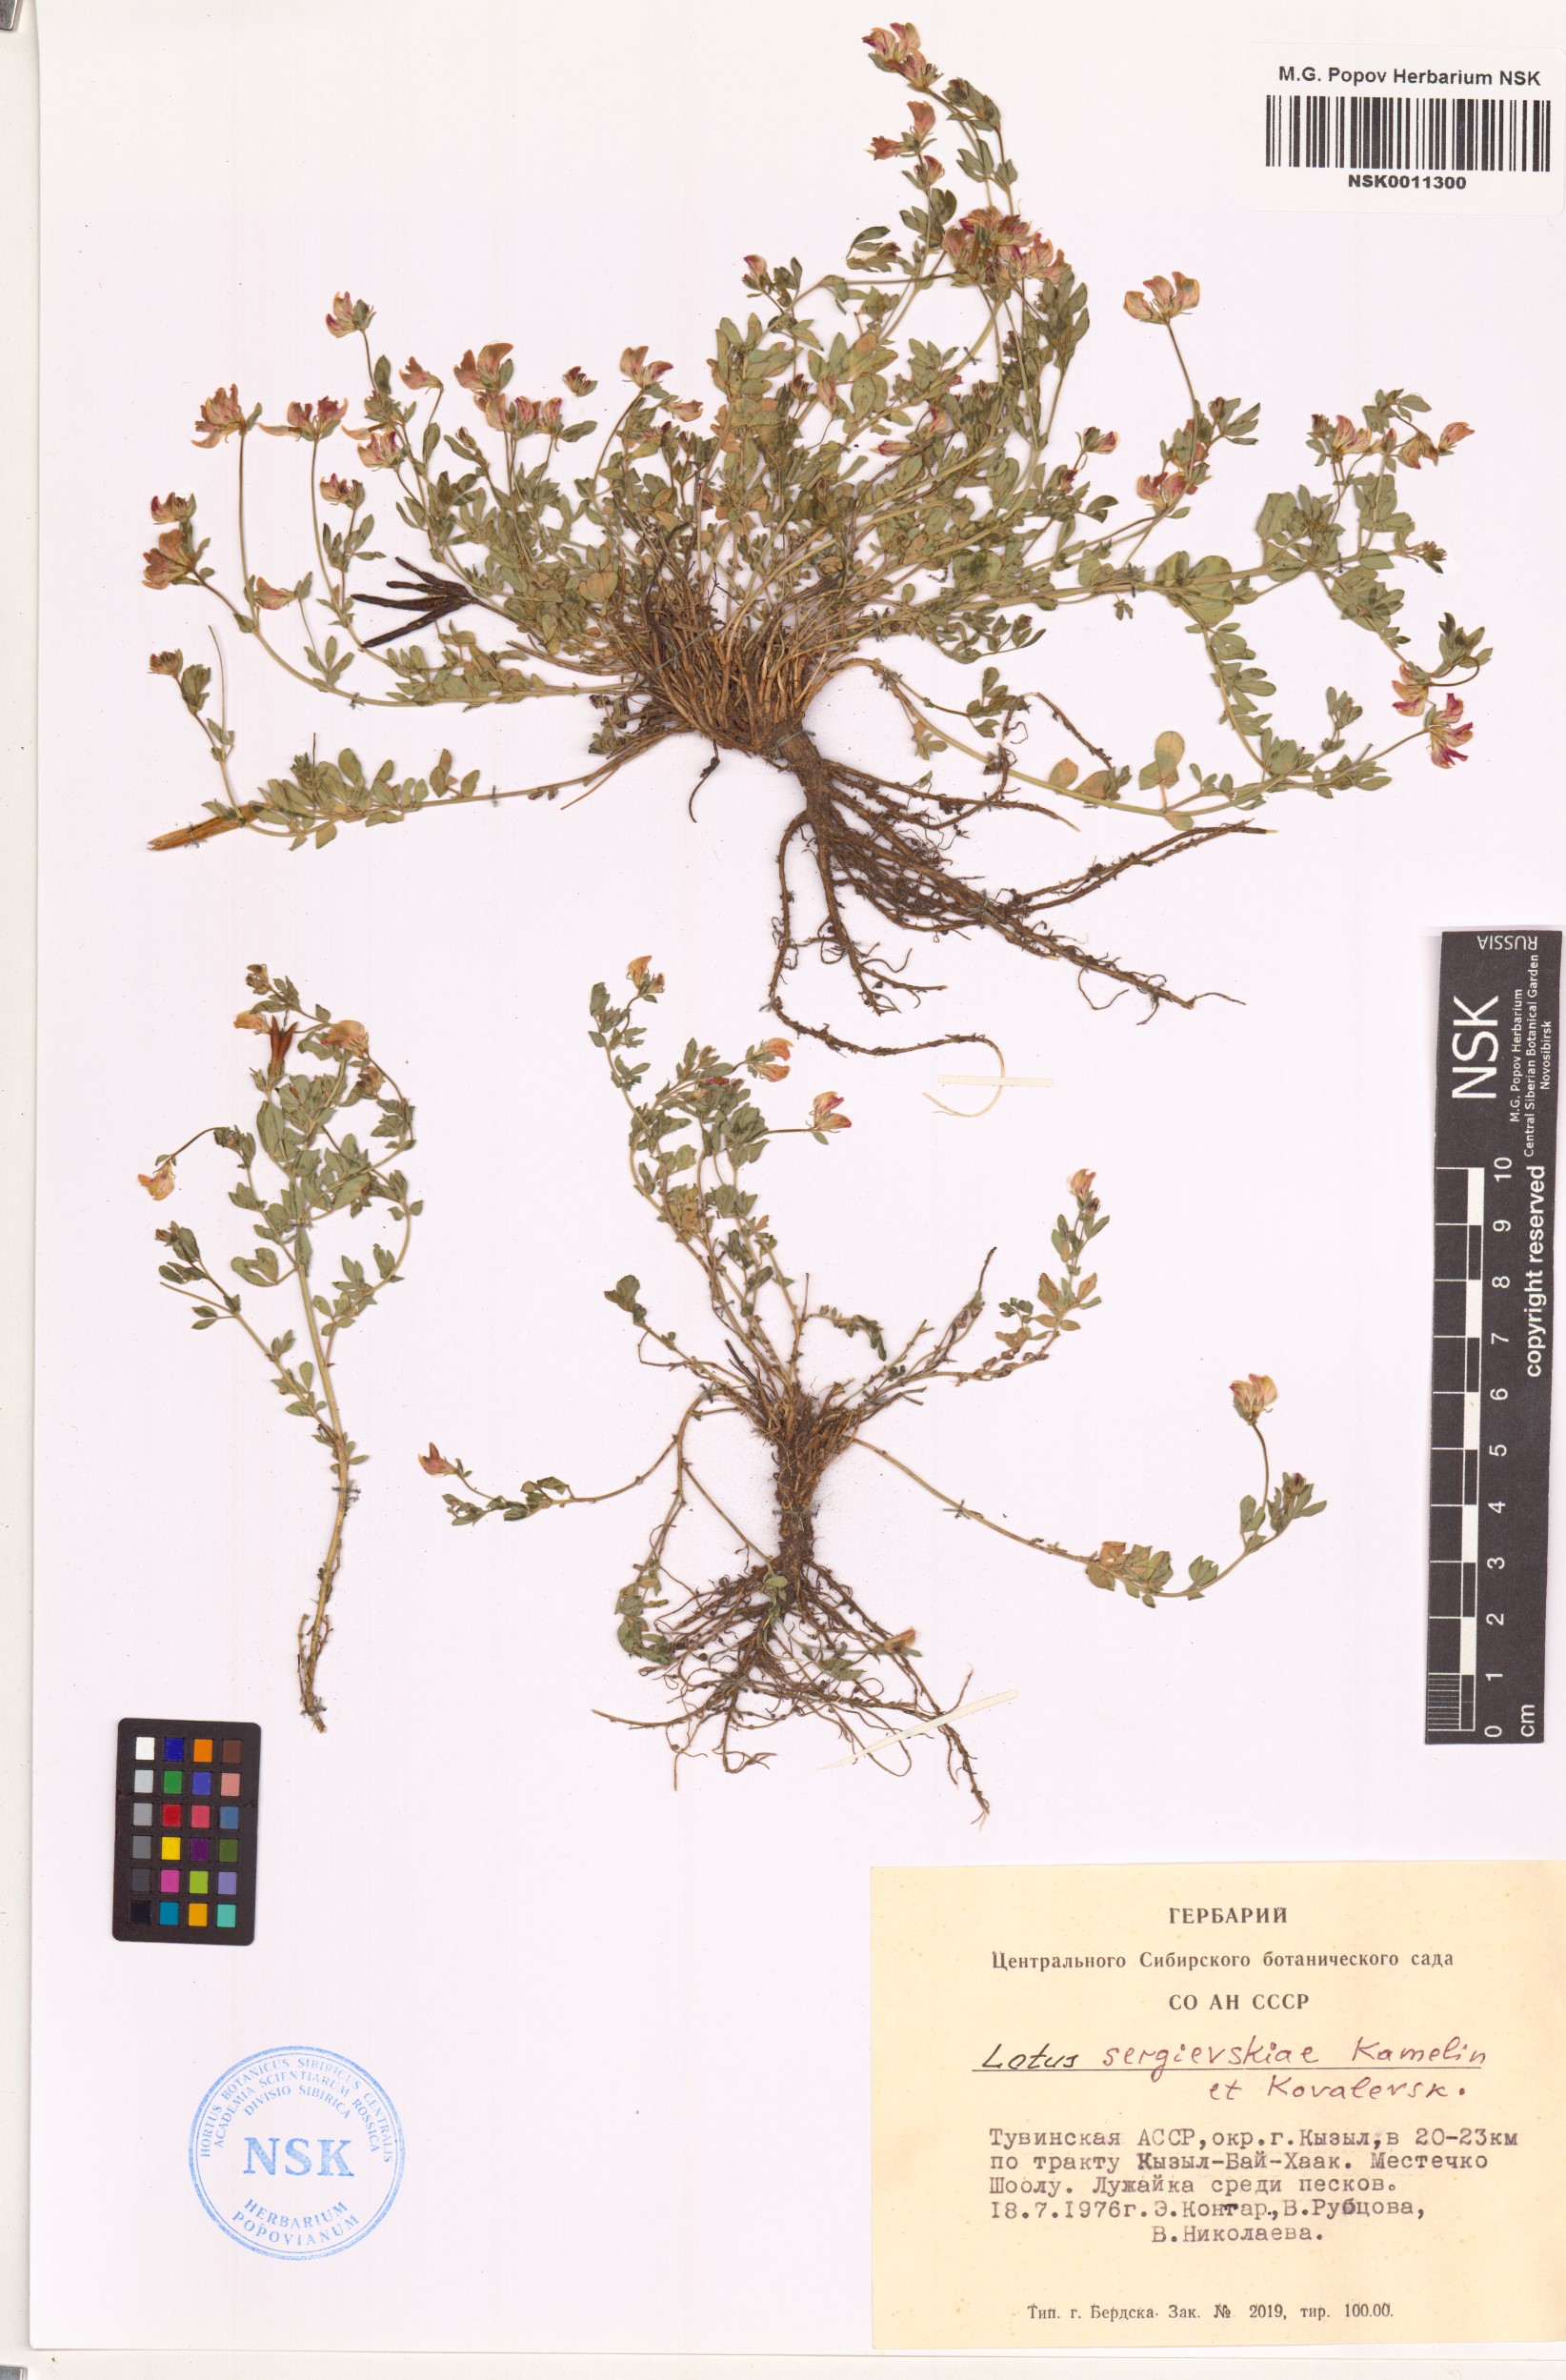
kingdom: Plantae
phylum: Tracheophyta
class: Magnoliopsida
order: Fabales
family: Fabaceae
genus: Lotus
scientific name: Lotus krylovii
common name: Krylov's bird's-foot trefoil
